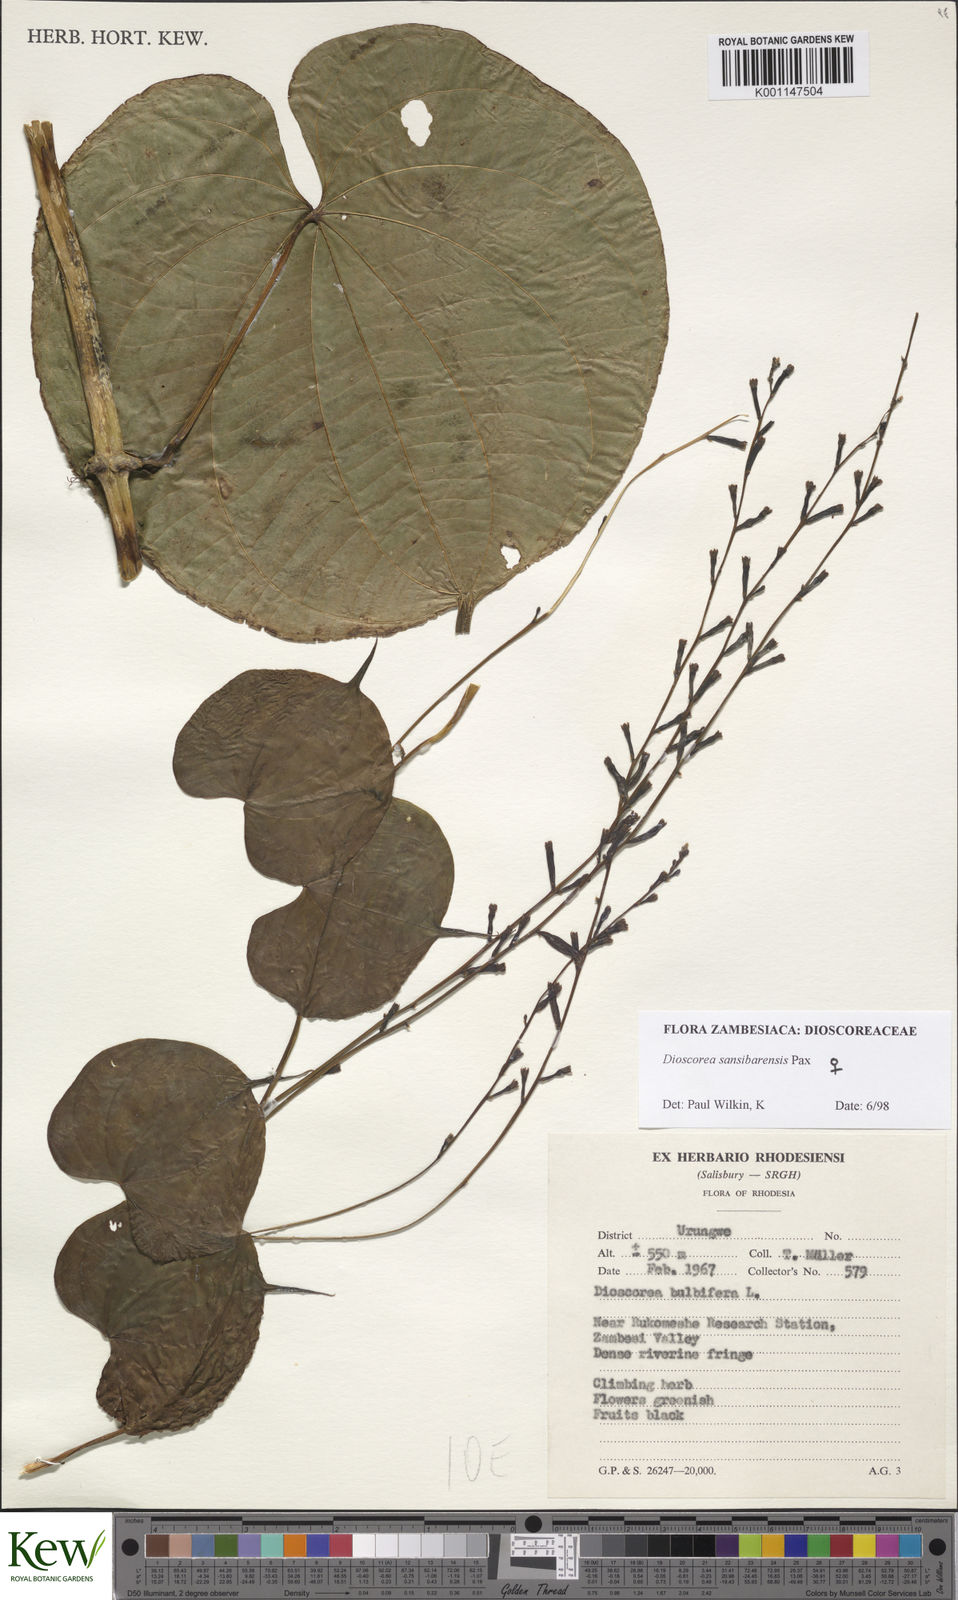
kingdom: Plantae
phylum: Tracheophyta
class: Liliopsida
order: Dioscoreales
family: Dioscoreaceae
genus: Dioscorea
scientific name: Dioscorea sansibarensis
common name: Zanzibar yam
